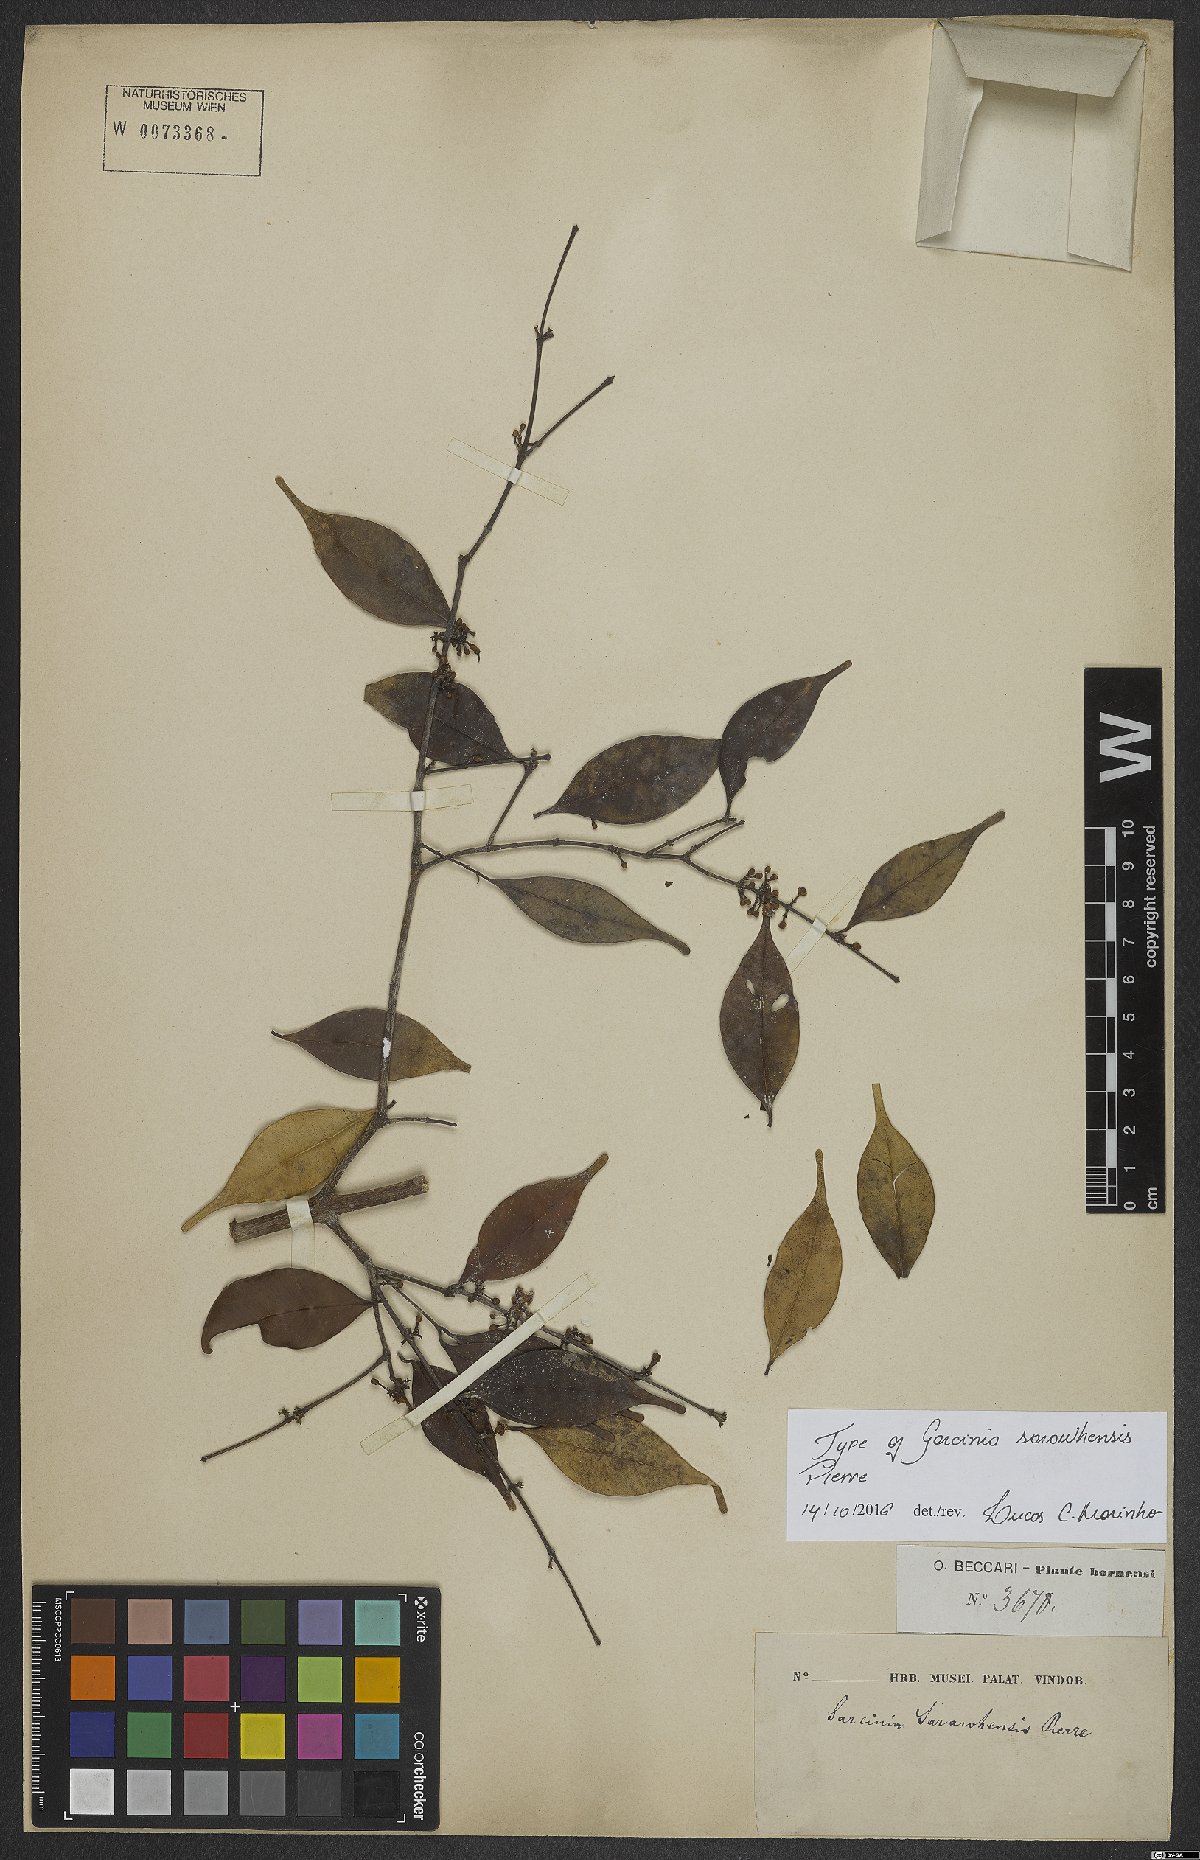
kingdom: Plantae
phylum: Tracheophyta
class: Magnoliopsida
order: Malpighiales
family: Clusiaceae
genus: Garcinia
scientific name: Garcinia sarawhensis
